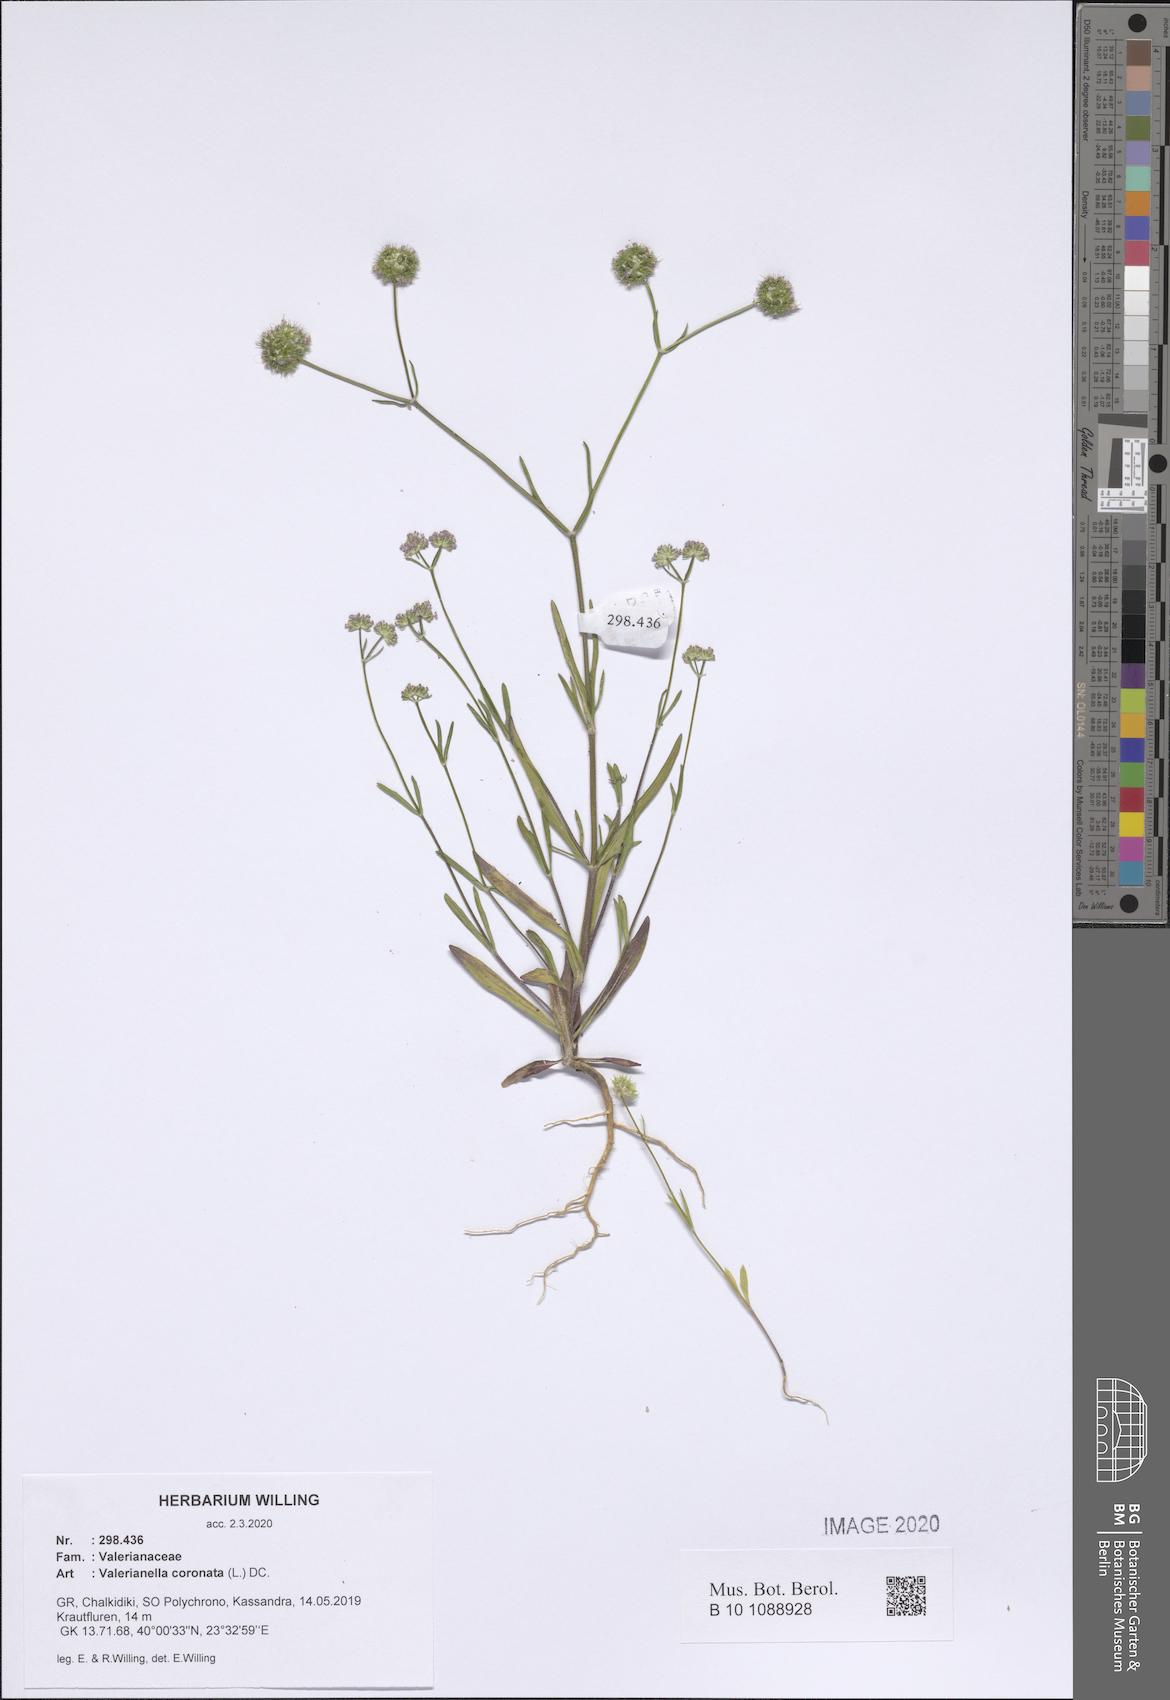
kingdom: Plantae
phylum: Tracheophyta
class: Magnoliopsida
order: Dipsacales
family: Caprifoliaceae
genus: Valerianella
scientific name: Valerianella coronata
